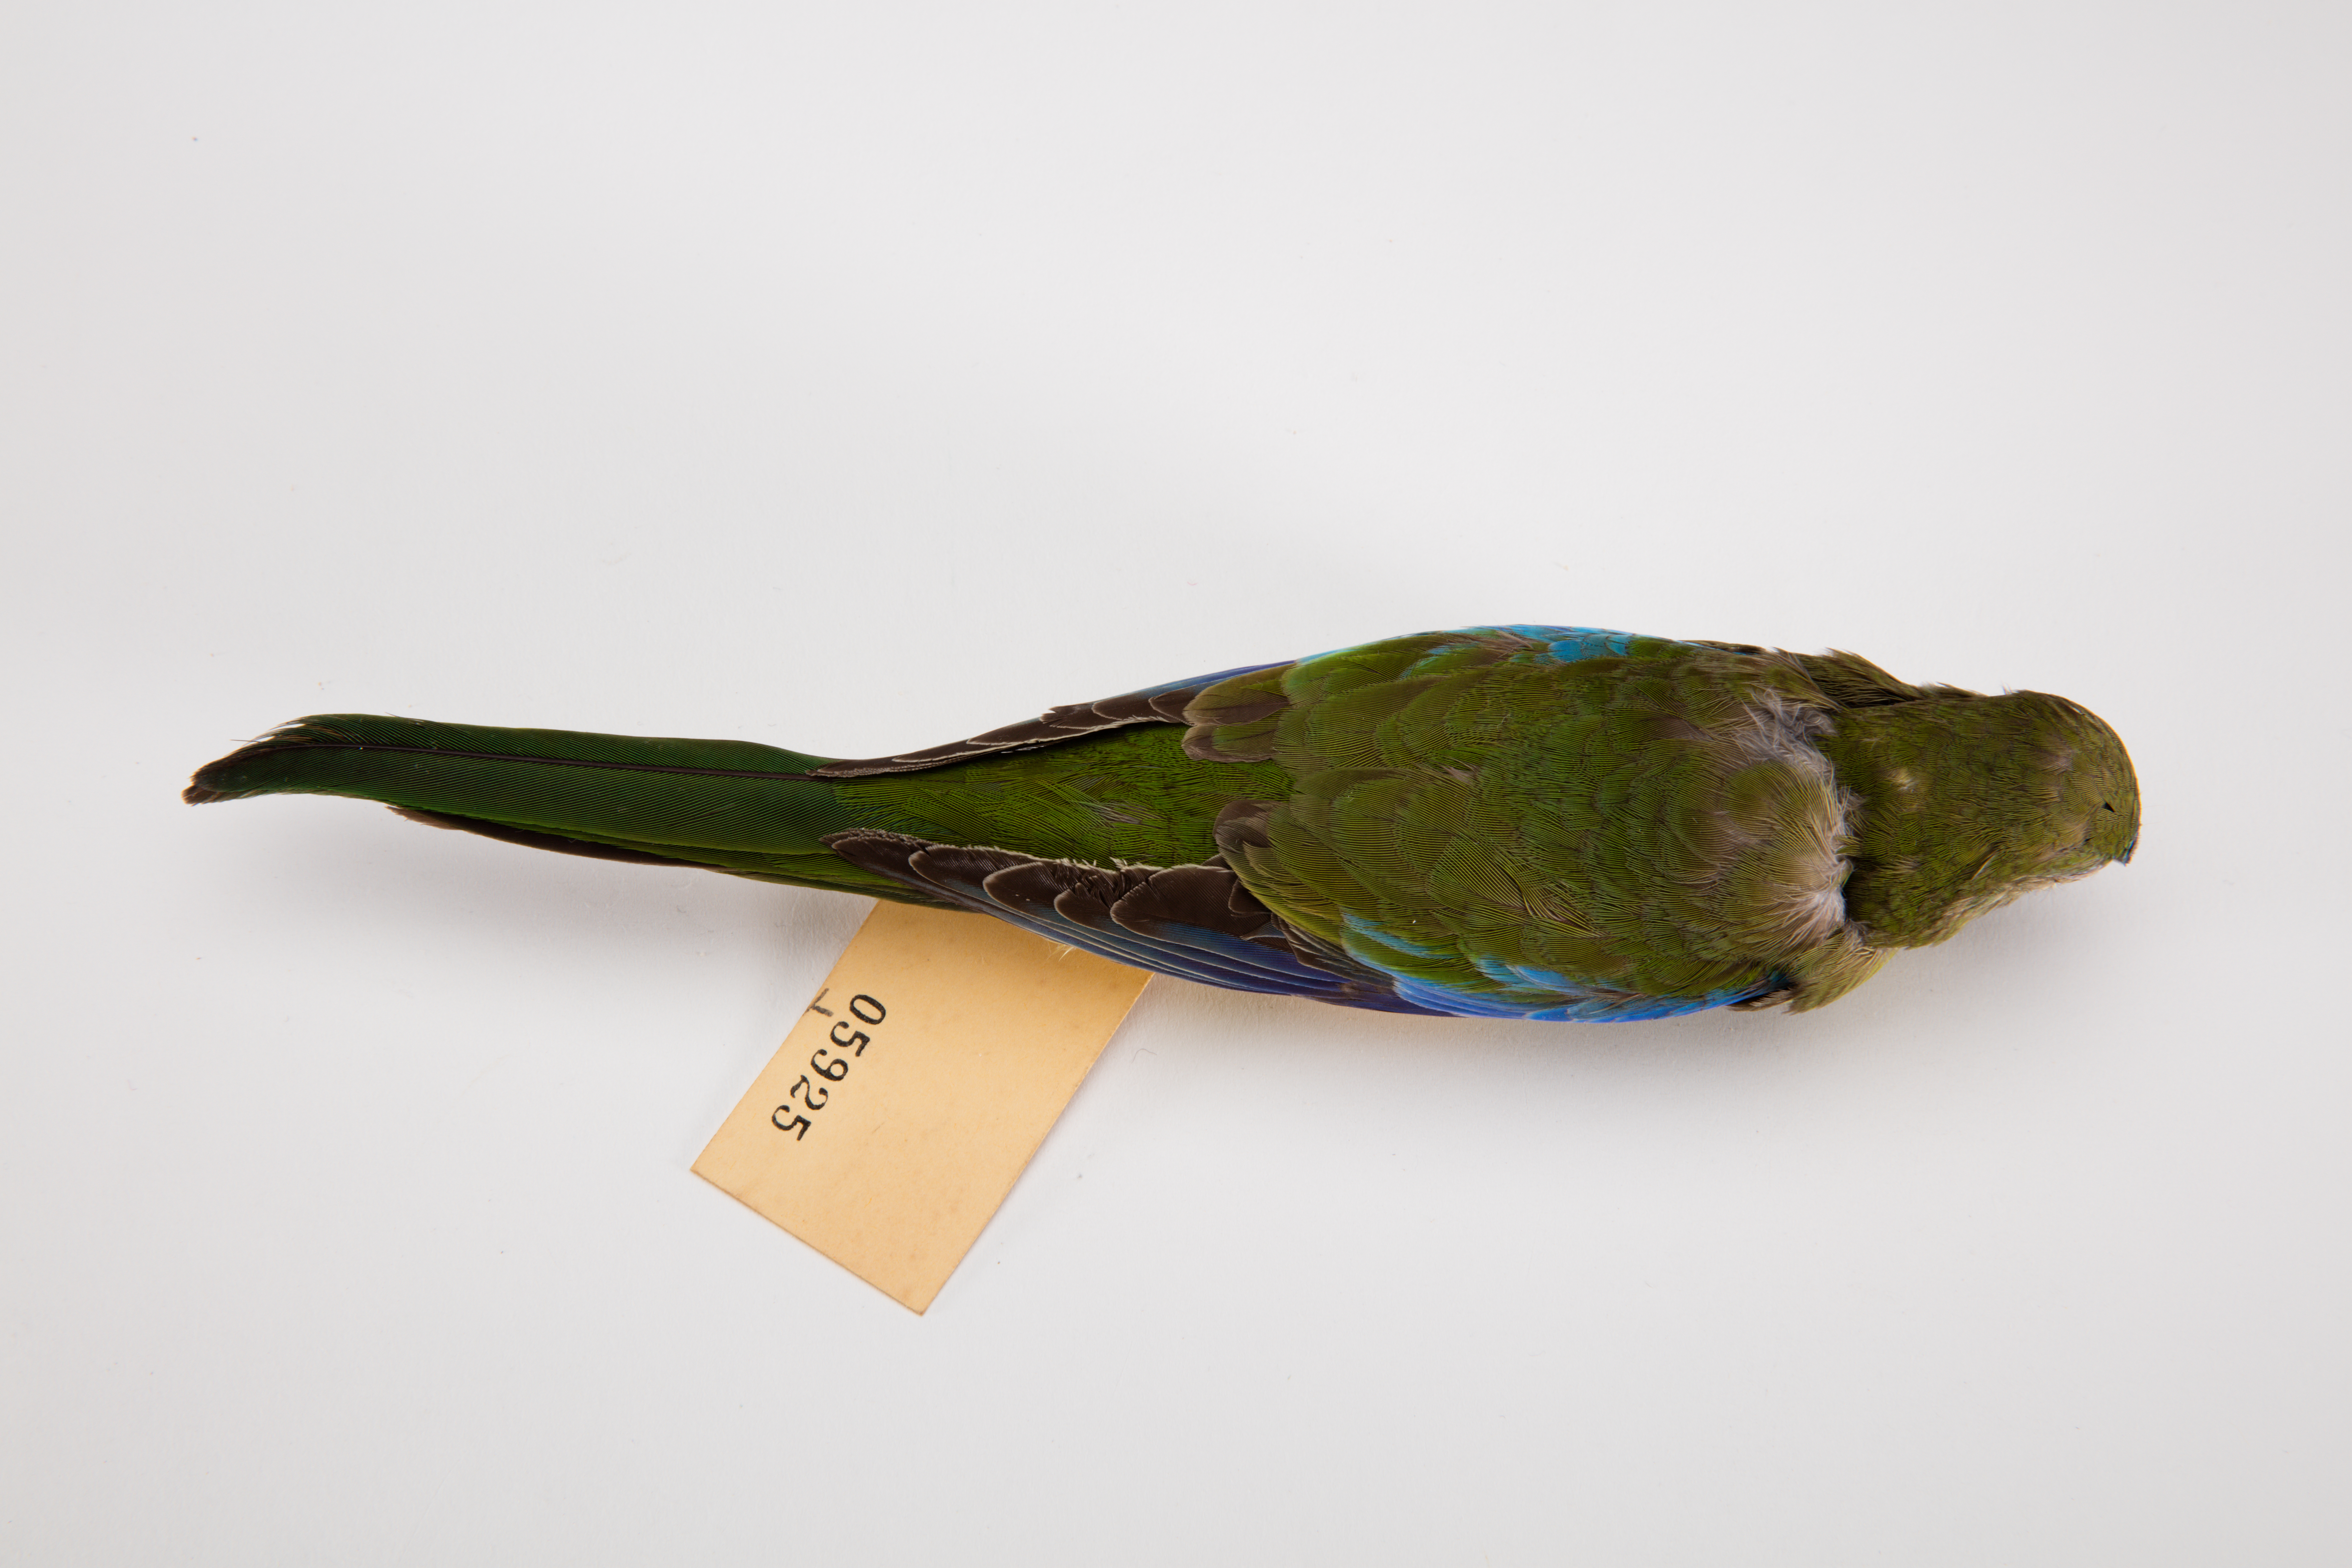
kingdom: Animalia
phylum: Chordata
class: Aves
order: Psittaciformes
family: Psittacidae
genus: Neophema
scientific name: Neophema pulchella
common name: Turquoise parrot
